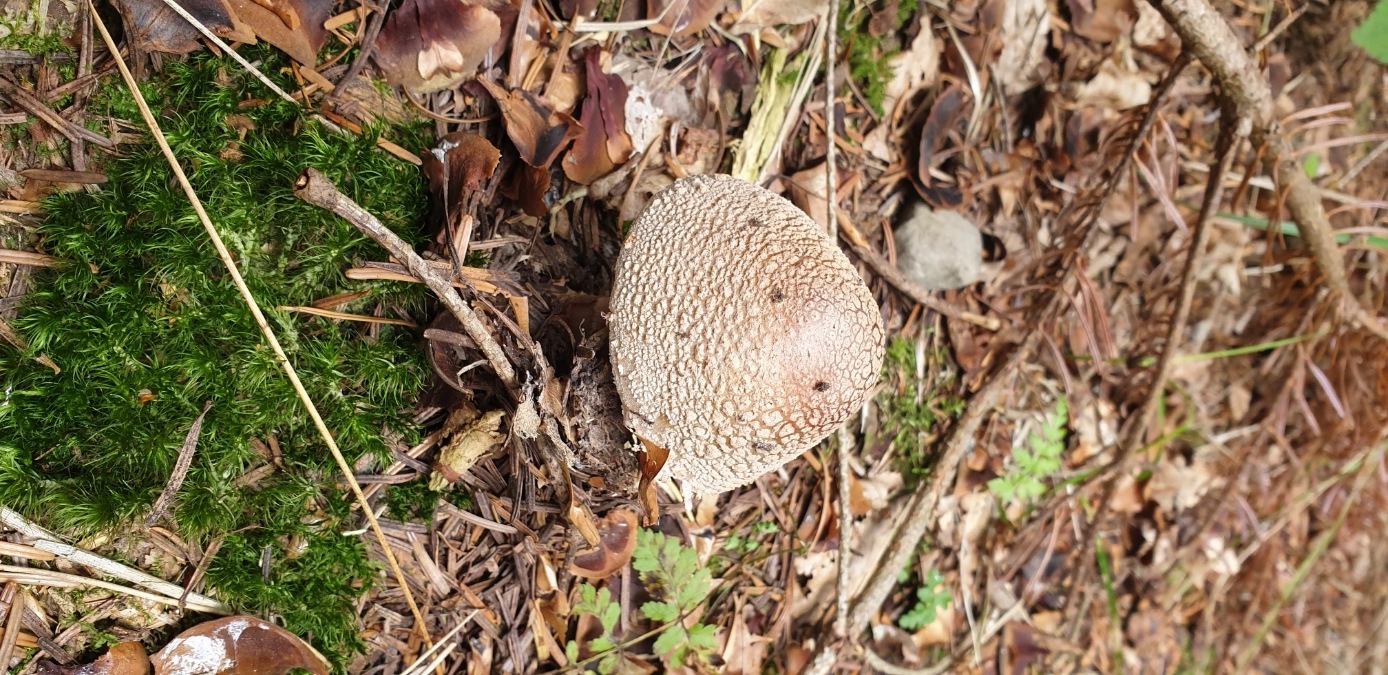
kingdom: Fungi
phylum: Basidiomycota
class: Agaricomycetes
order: Agaricales
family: Amanitaceae
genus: Amanita
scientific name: Amanita rubescens
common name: rødmende fluesvamp
